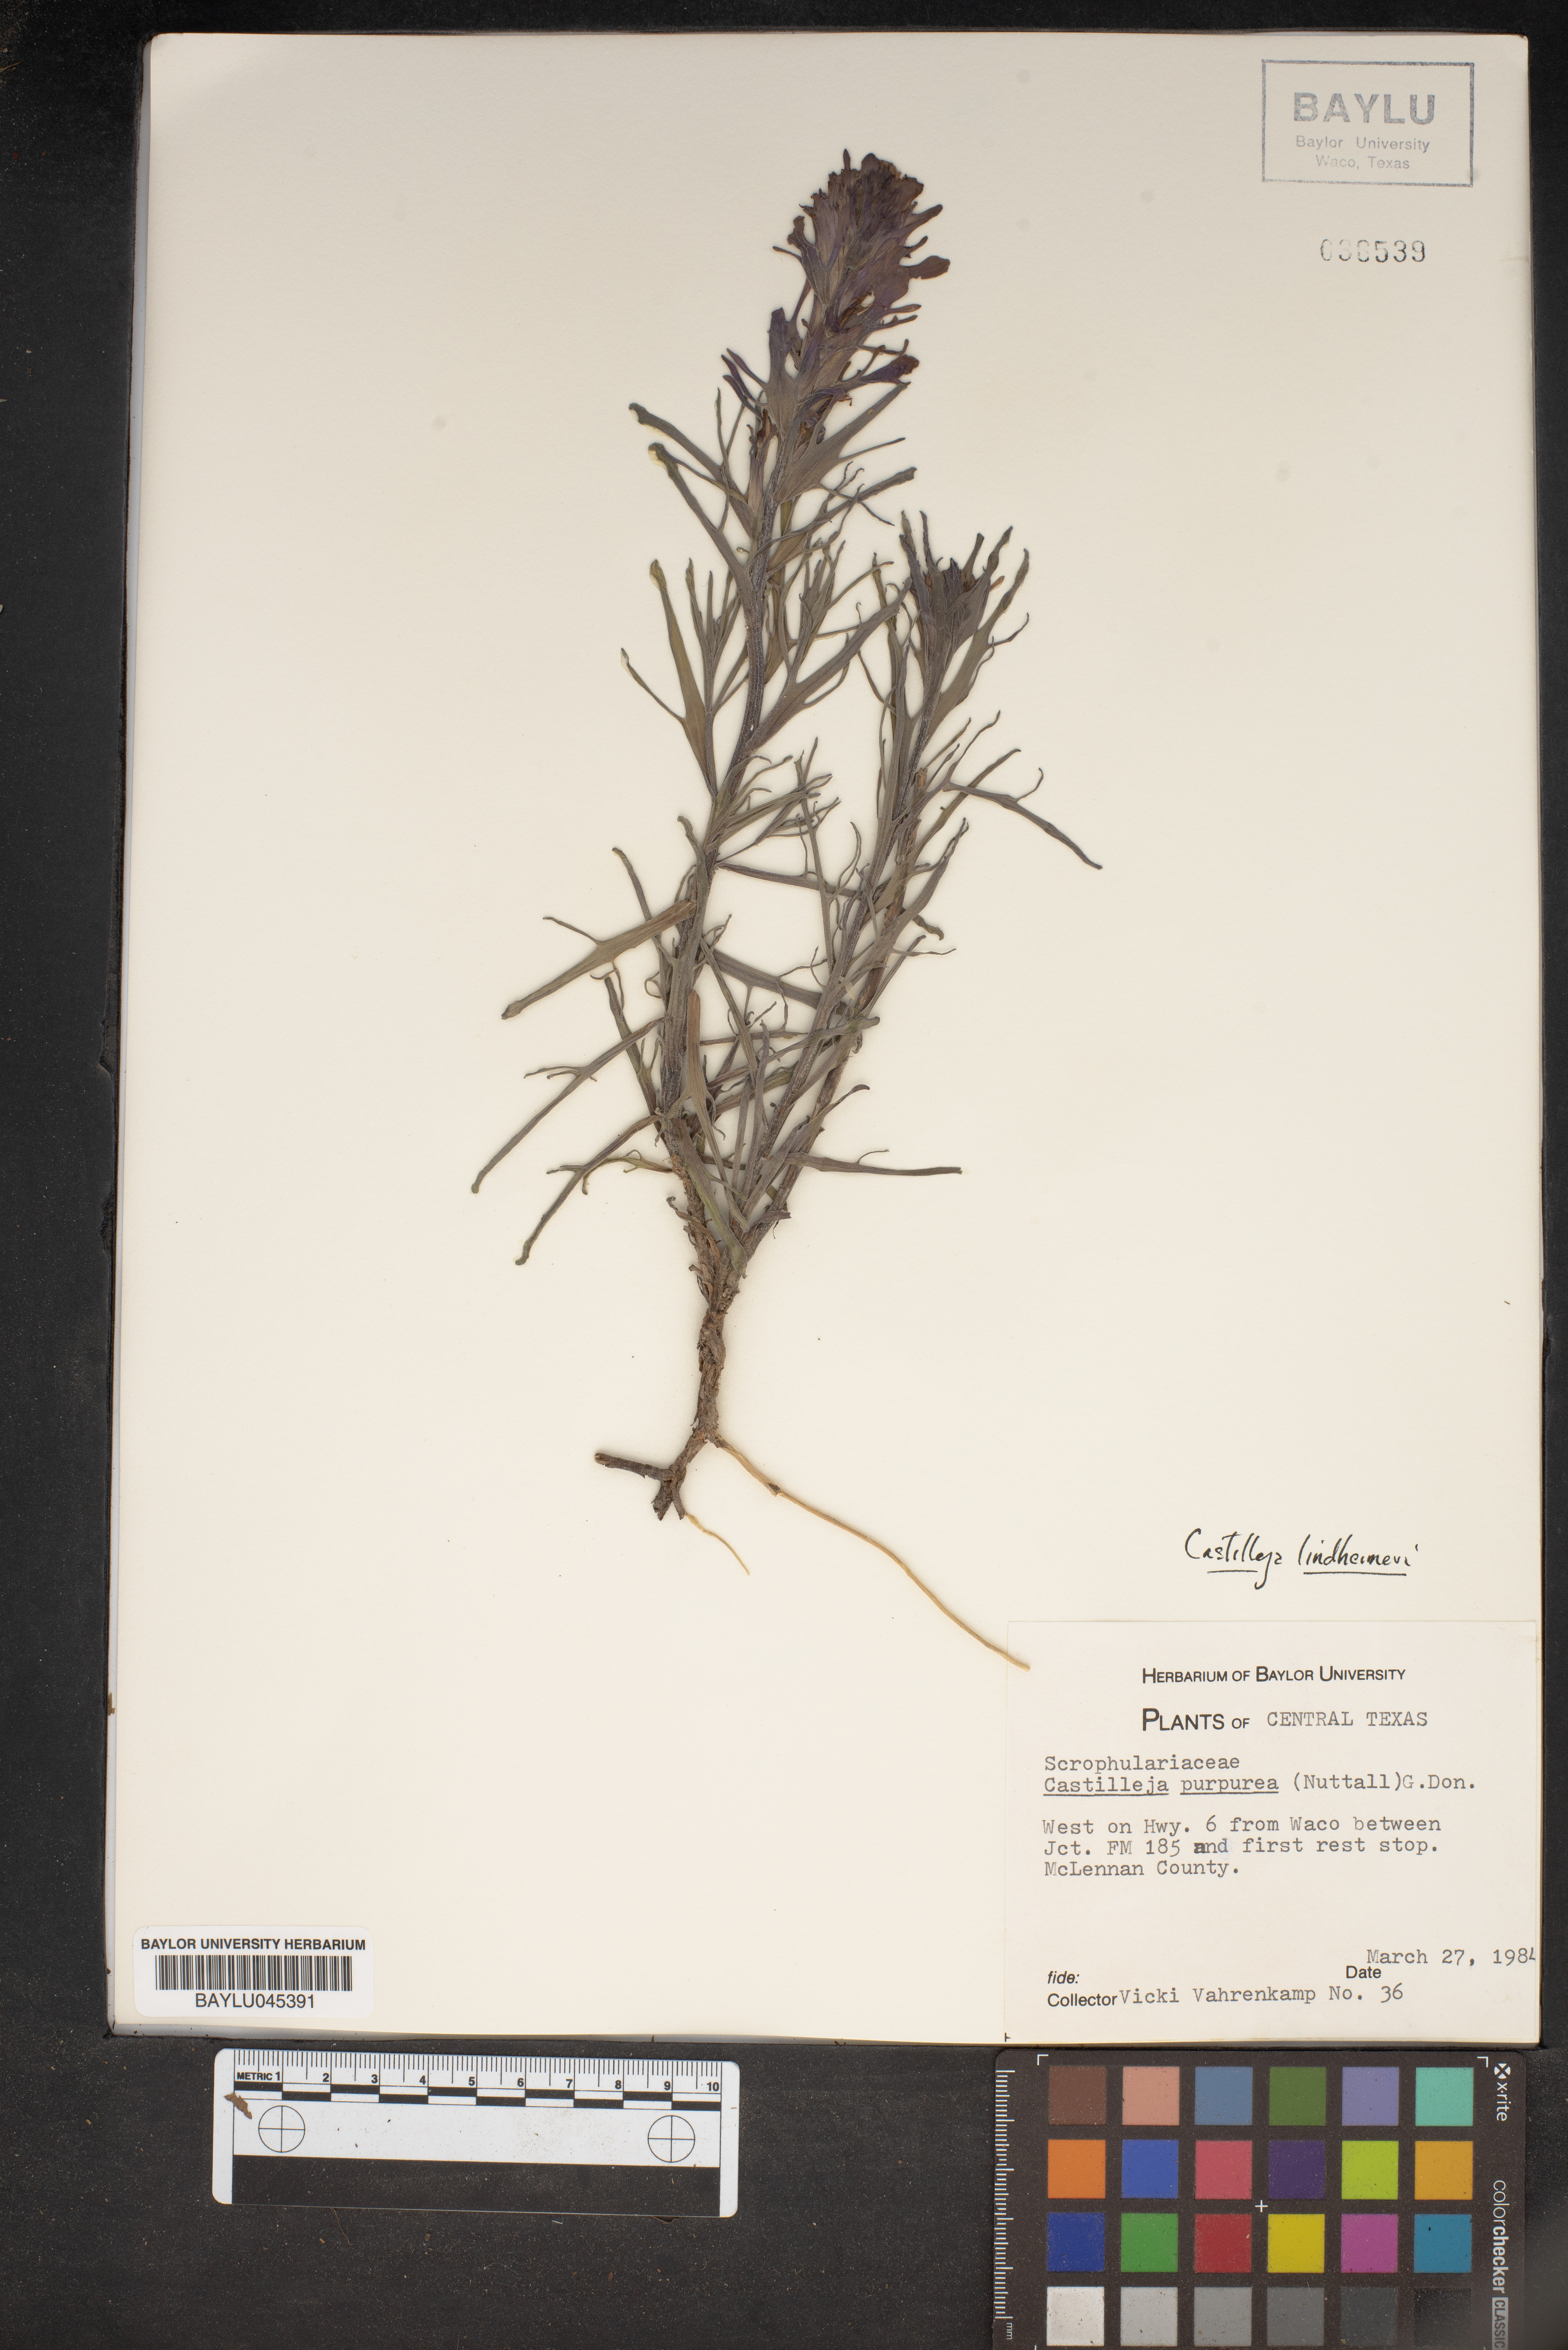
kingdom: Plantae
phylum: Tracheophyta
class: Magnoliopsida
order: Lamiales
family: Orobanchaceae
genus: Castilleja
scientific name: Castilleja purpurea
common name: Plains paintbrush
